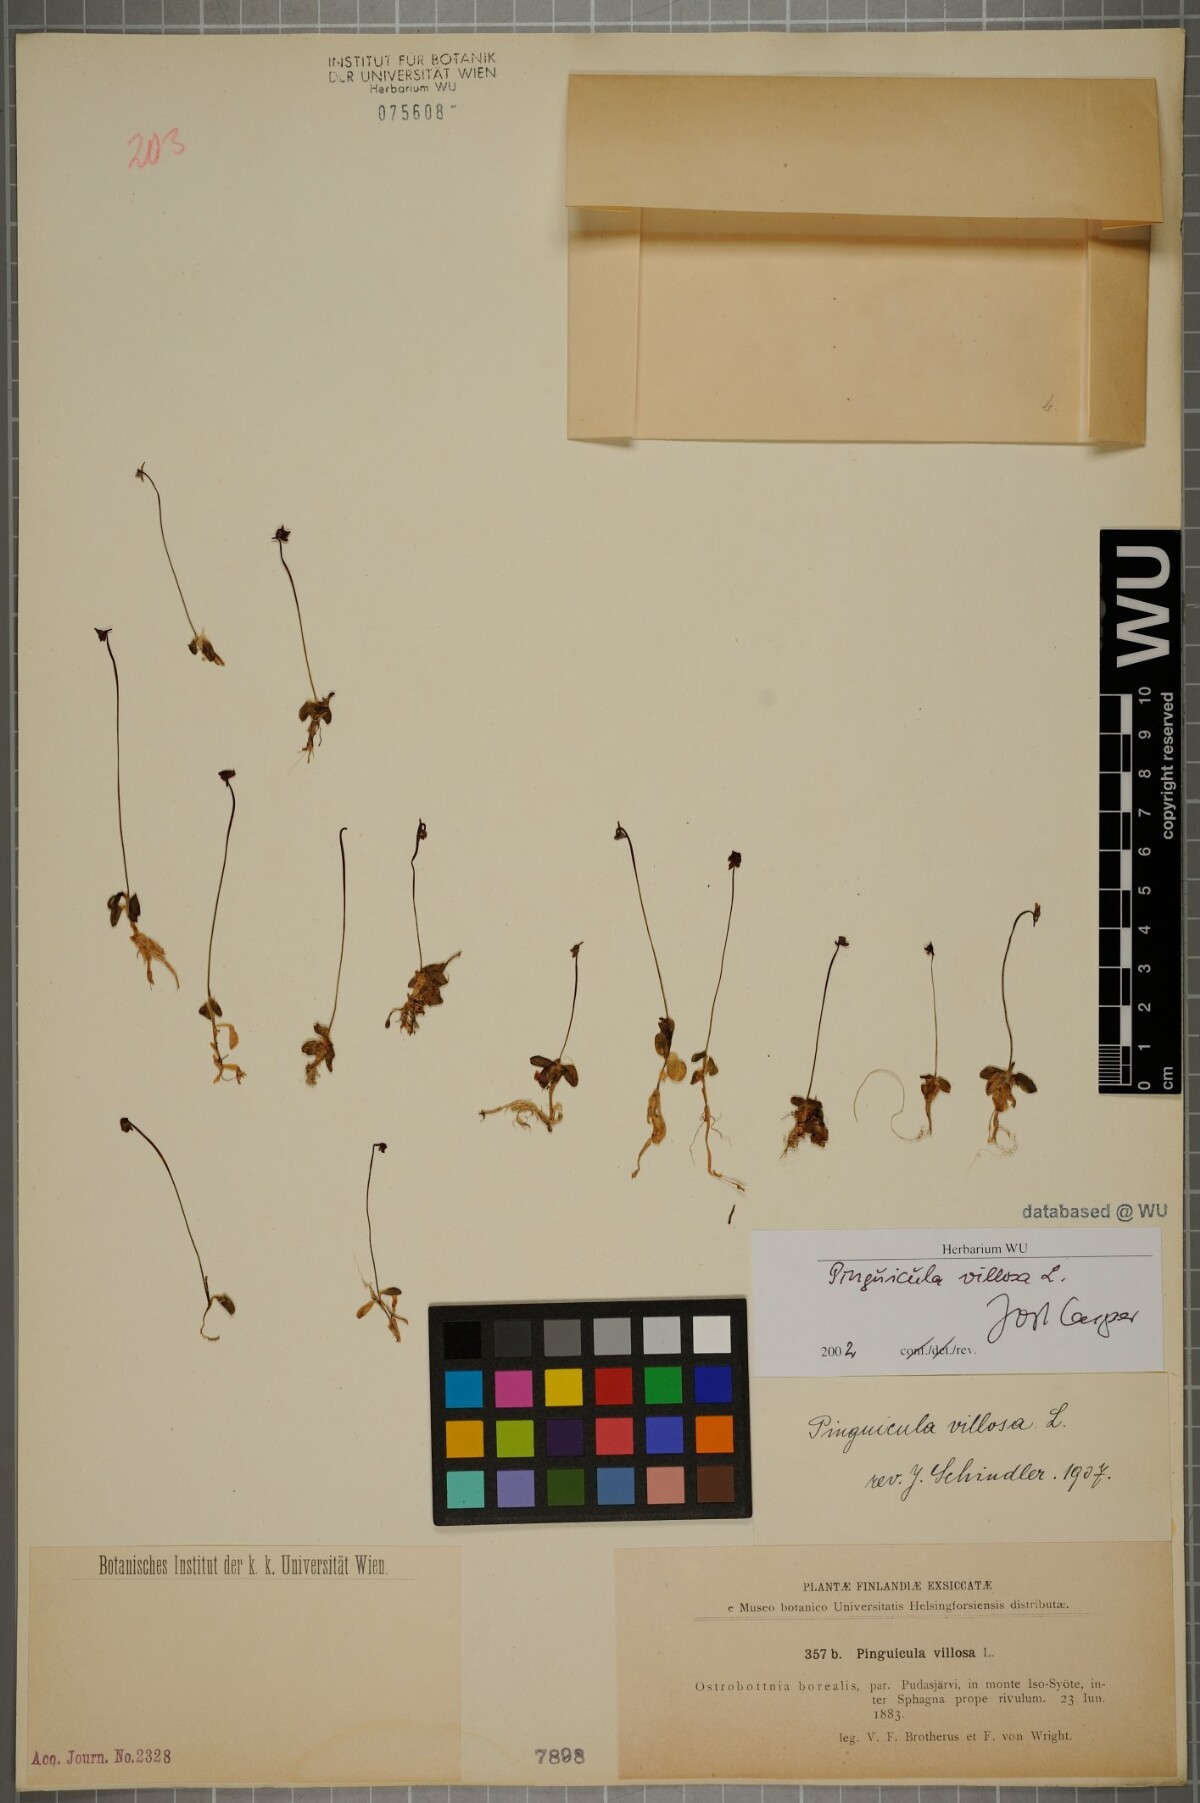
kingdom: Plantae
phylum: Tracheophyta
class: Magnoliopsida
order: Lamiales
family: Lentibulariaceae
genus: Pinguicula
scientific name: Pinguicula villosa
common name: Hairy butterwort
